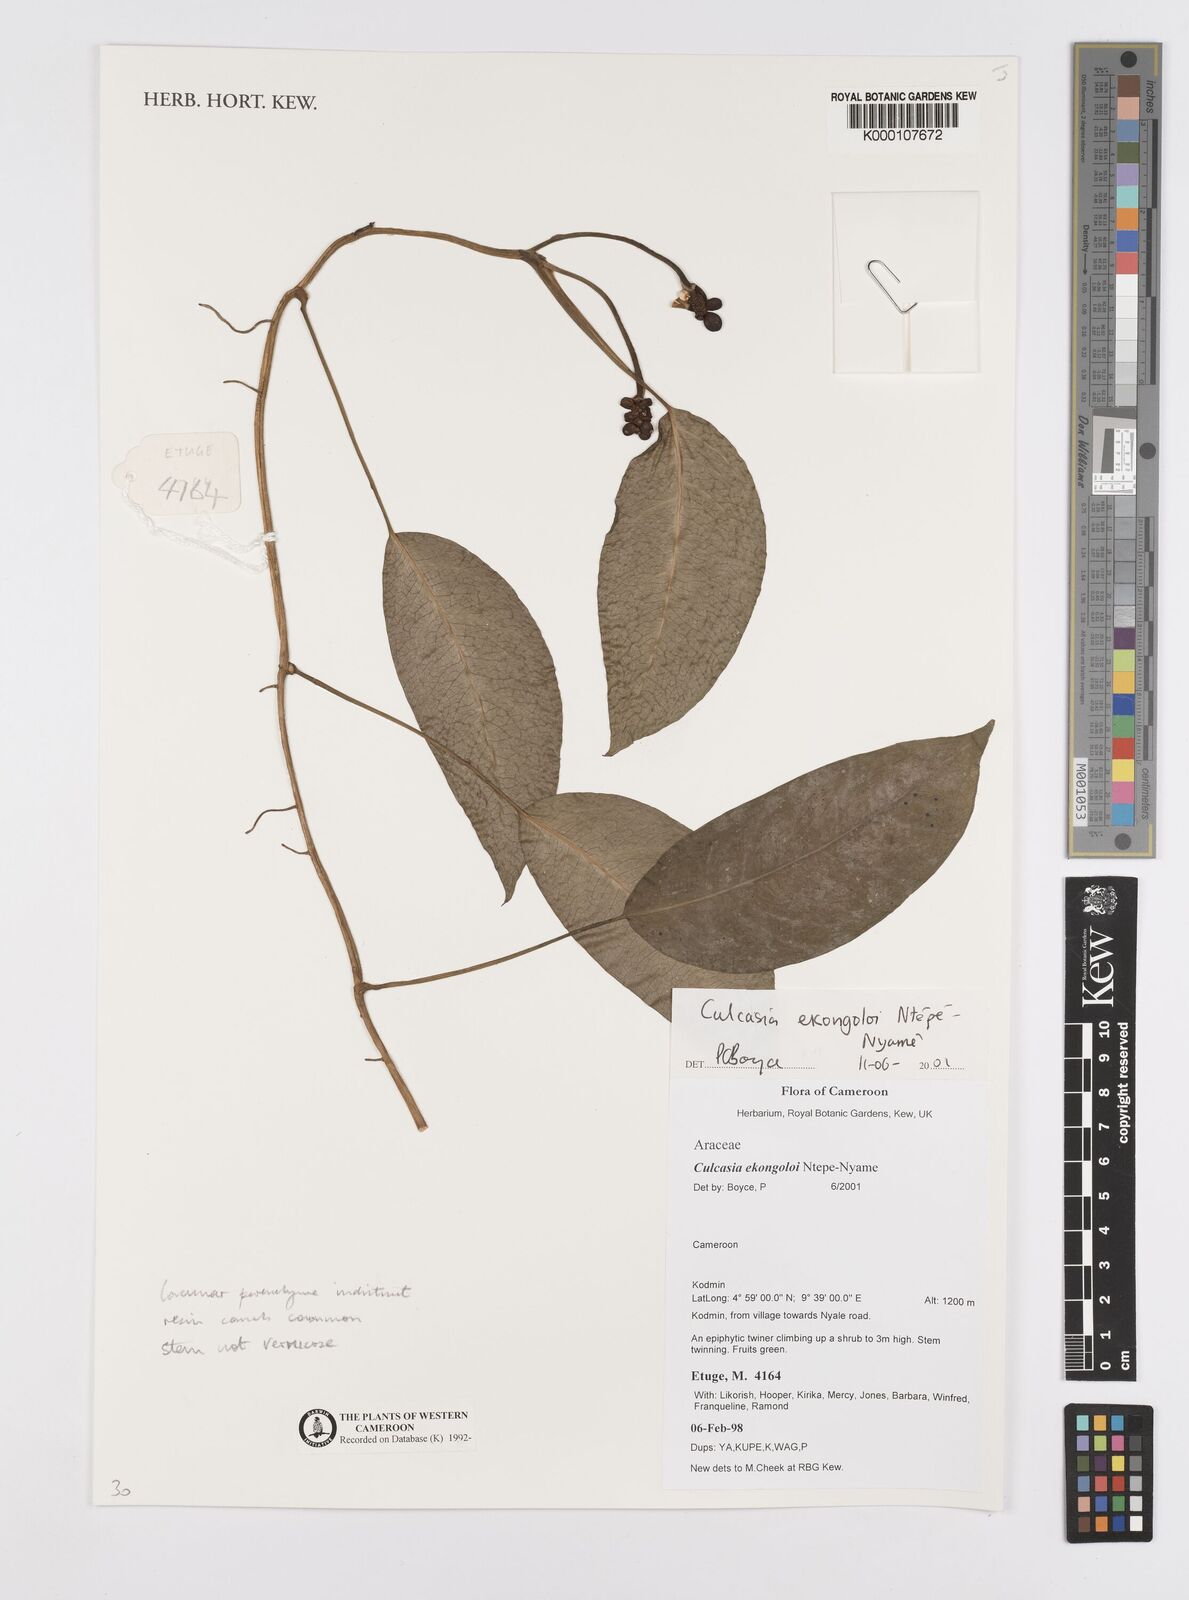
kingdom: Plantae
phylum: Tracheophyta
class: Liliopsida
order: Alismatales
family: Araceae
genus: Culcasia
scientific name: Culcasia ekongoloi
